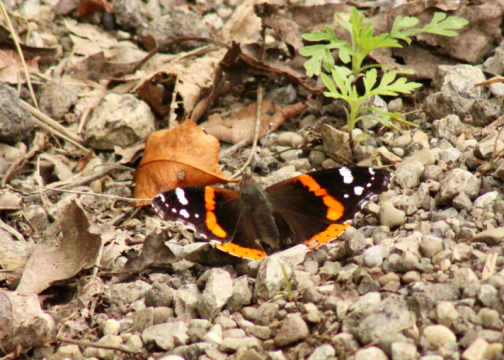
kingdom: Animalia
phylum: Arthropoda
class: Insecta
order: Lepidoptera
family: Nymphalidae
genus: Vanessa
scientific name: Vanessa atalanta
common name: Red Admiral
